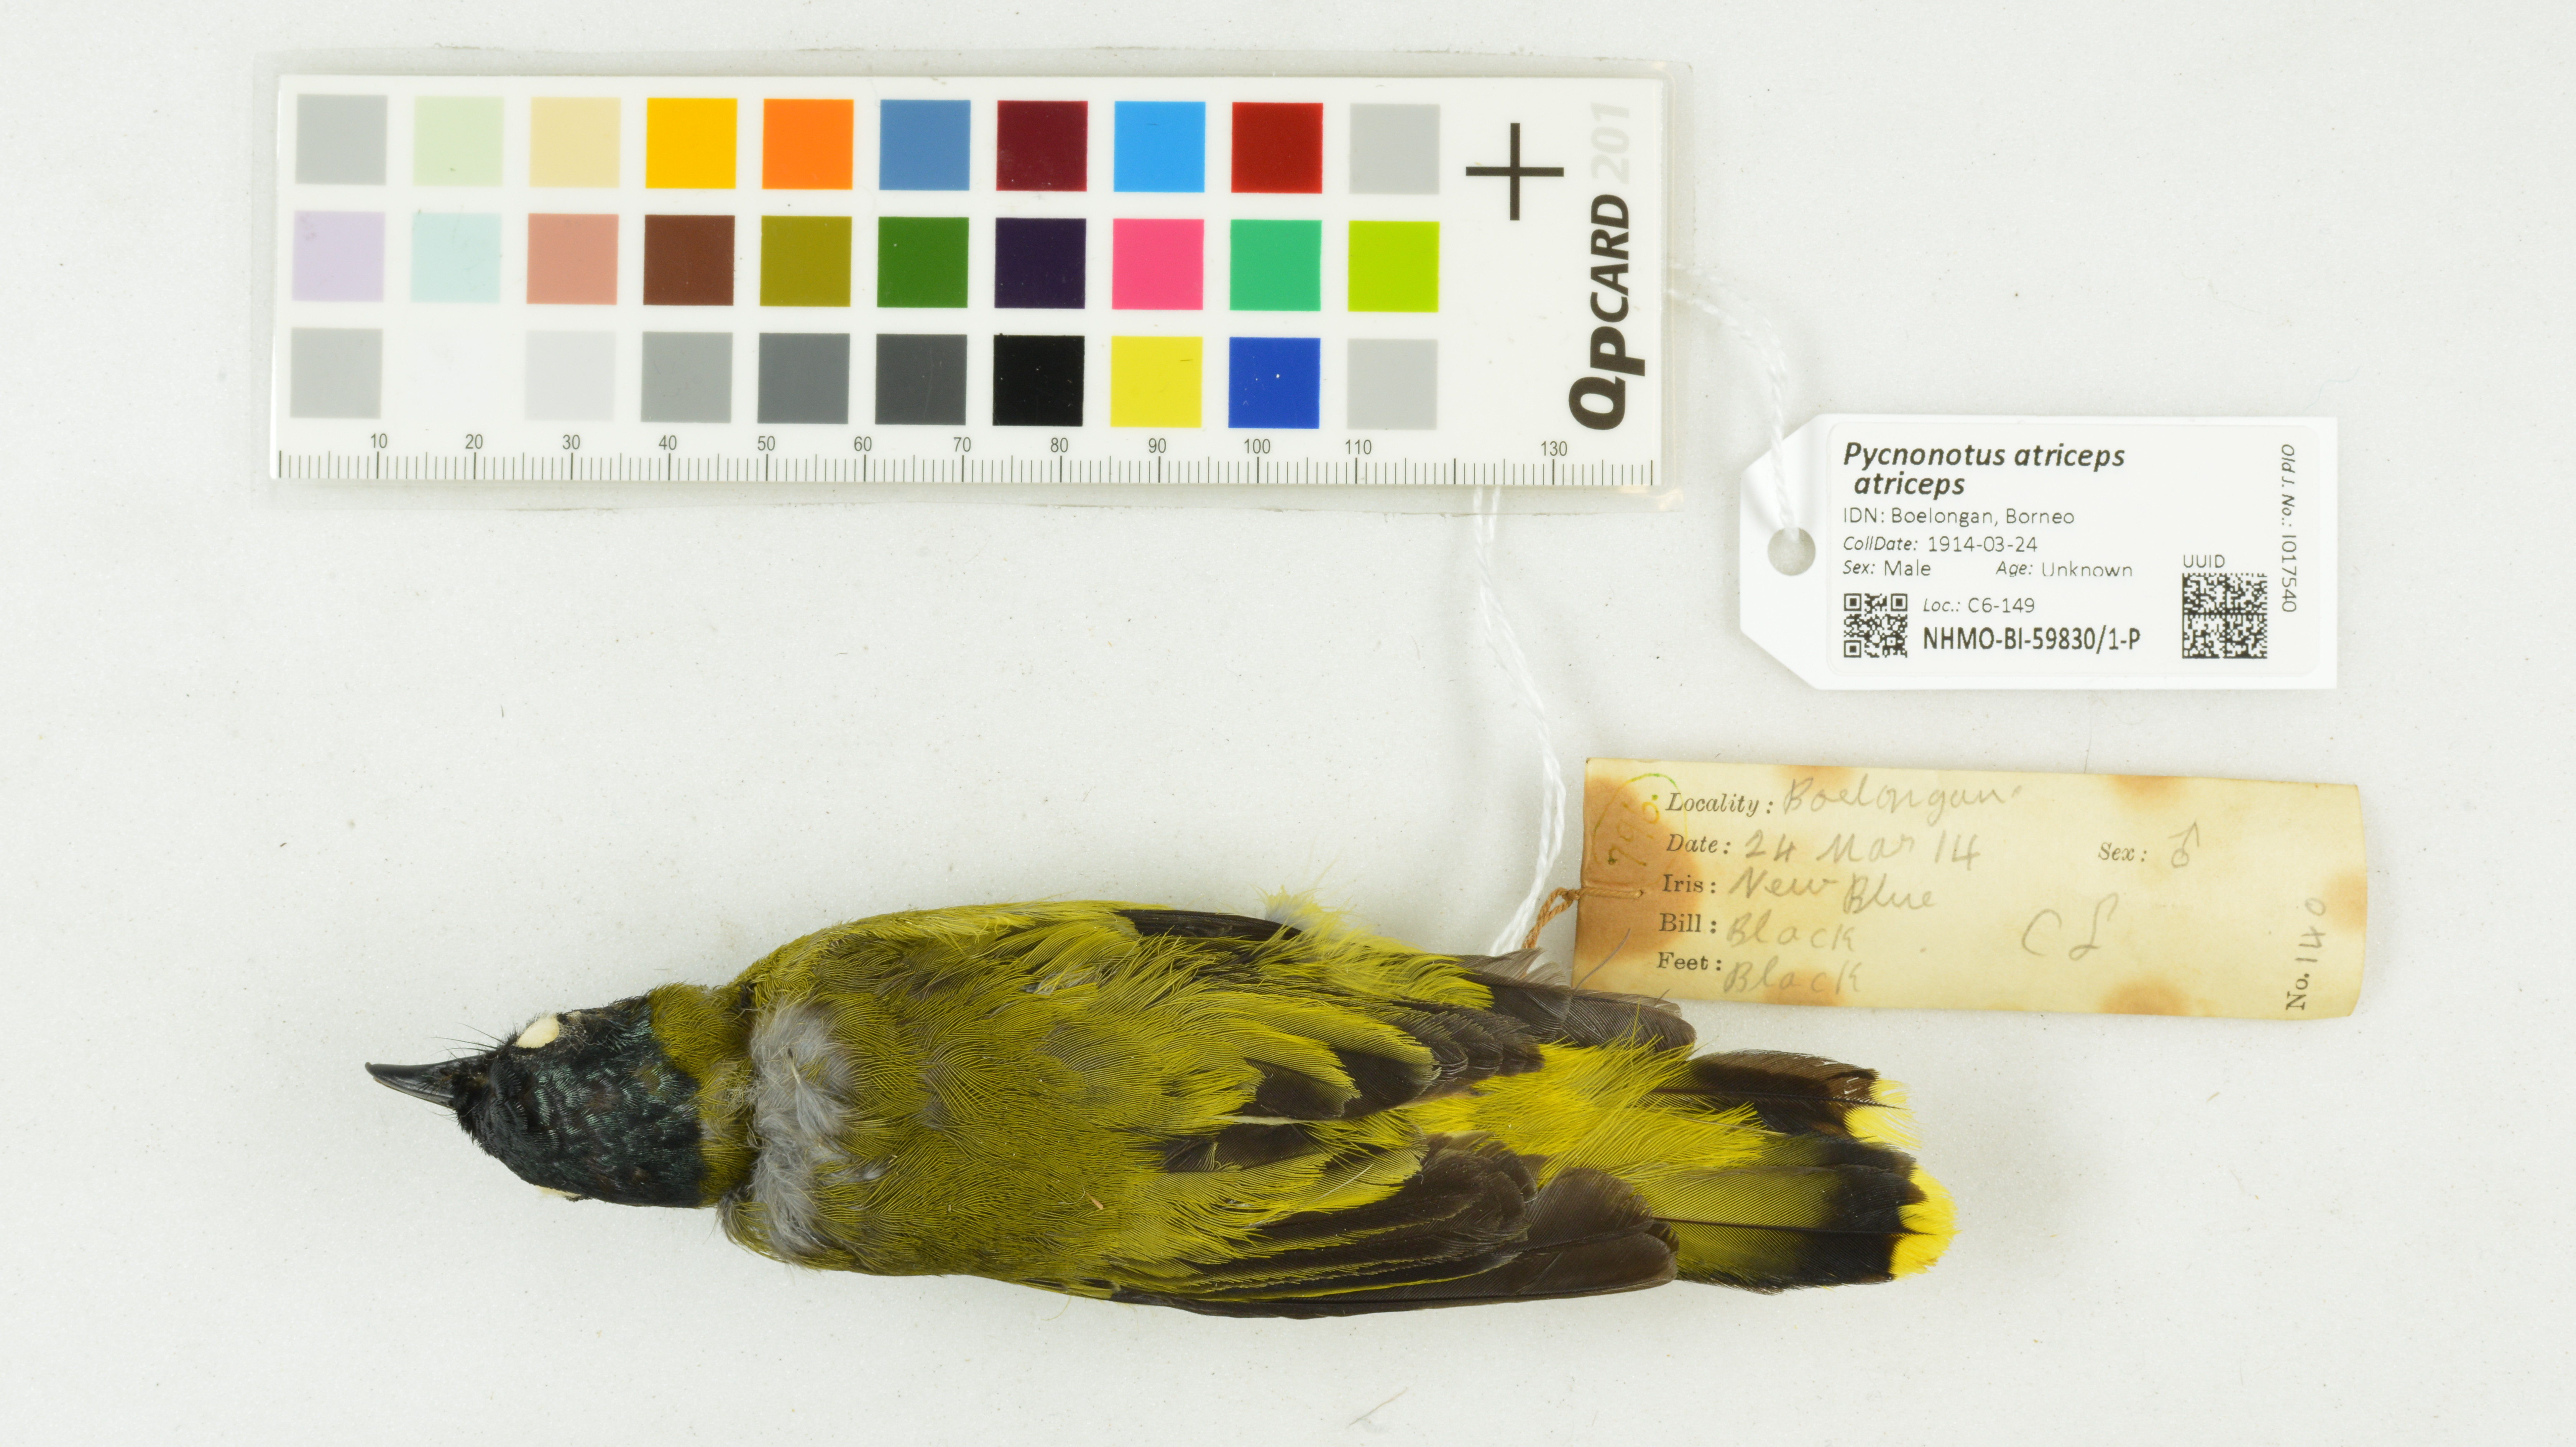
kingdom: Animalia
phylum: Chordata
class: Aves
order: Passeriformes
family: Pycnonotidae
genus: Brachypodius
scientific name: Brachypodius melanocephalos
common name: Black-headed bulbul
